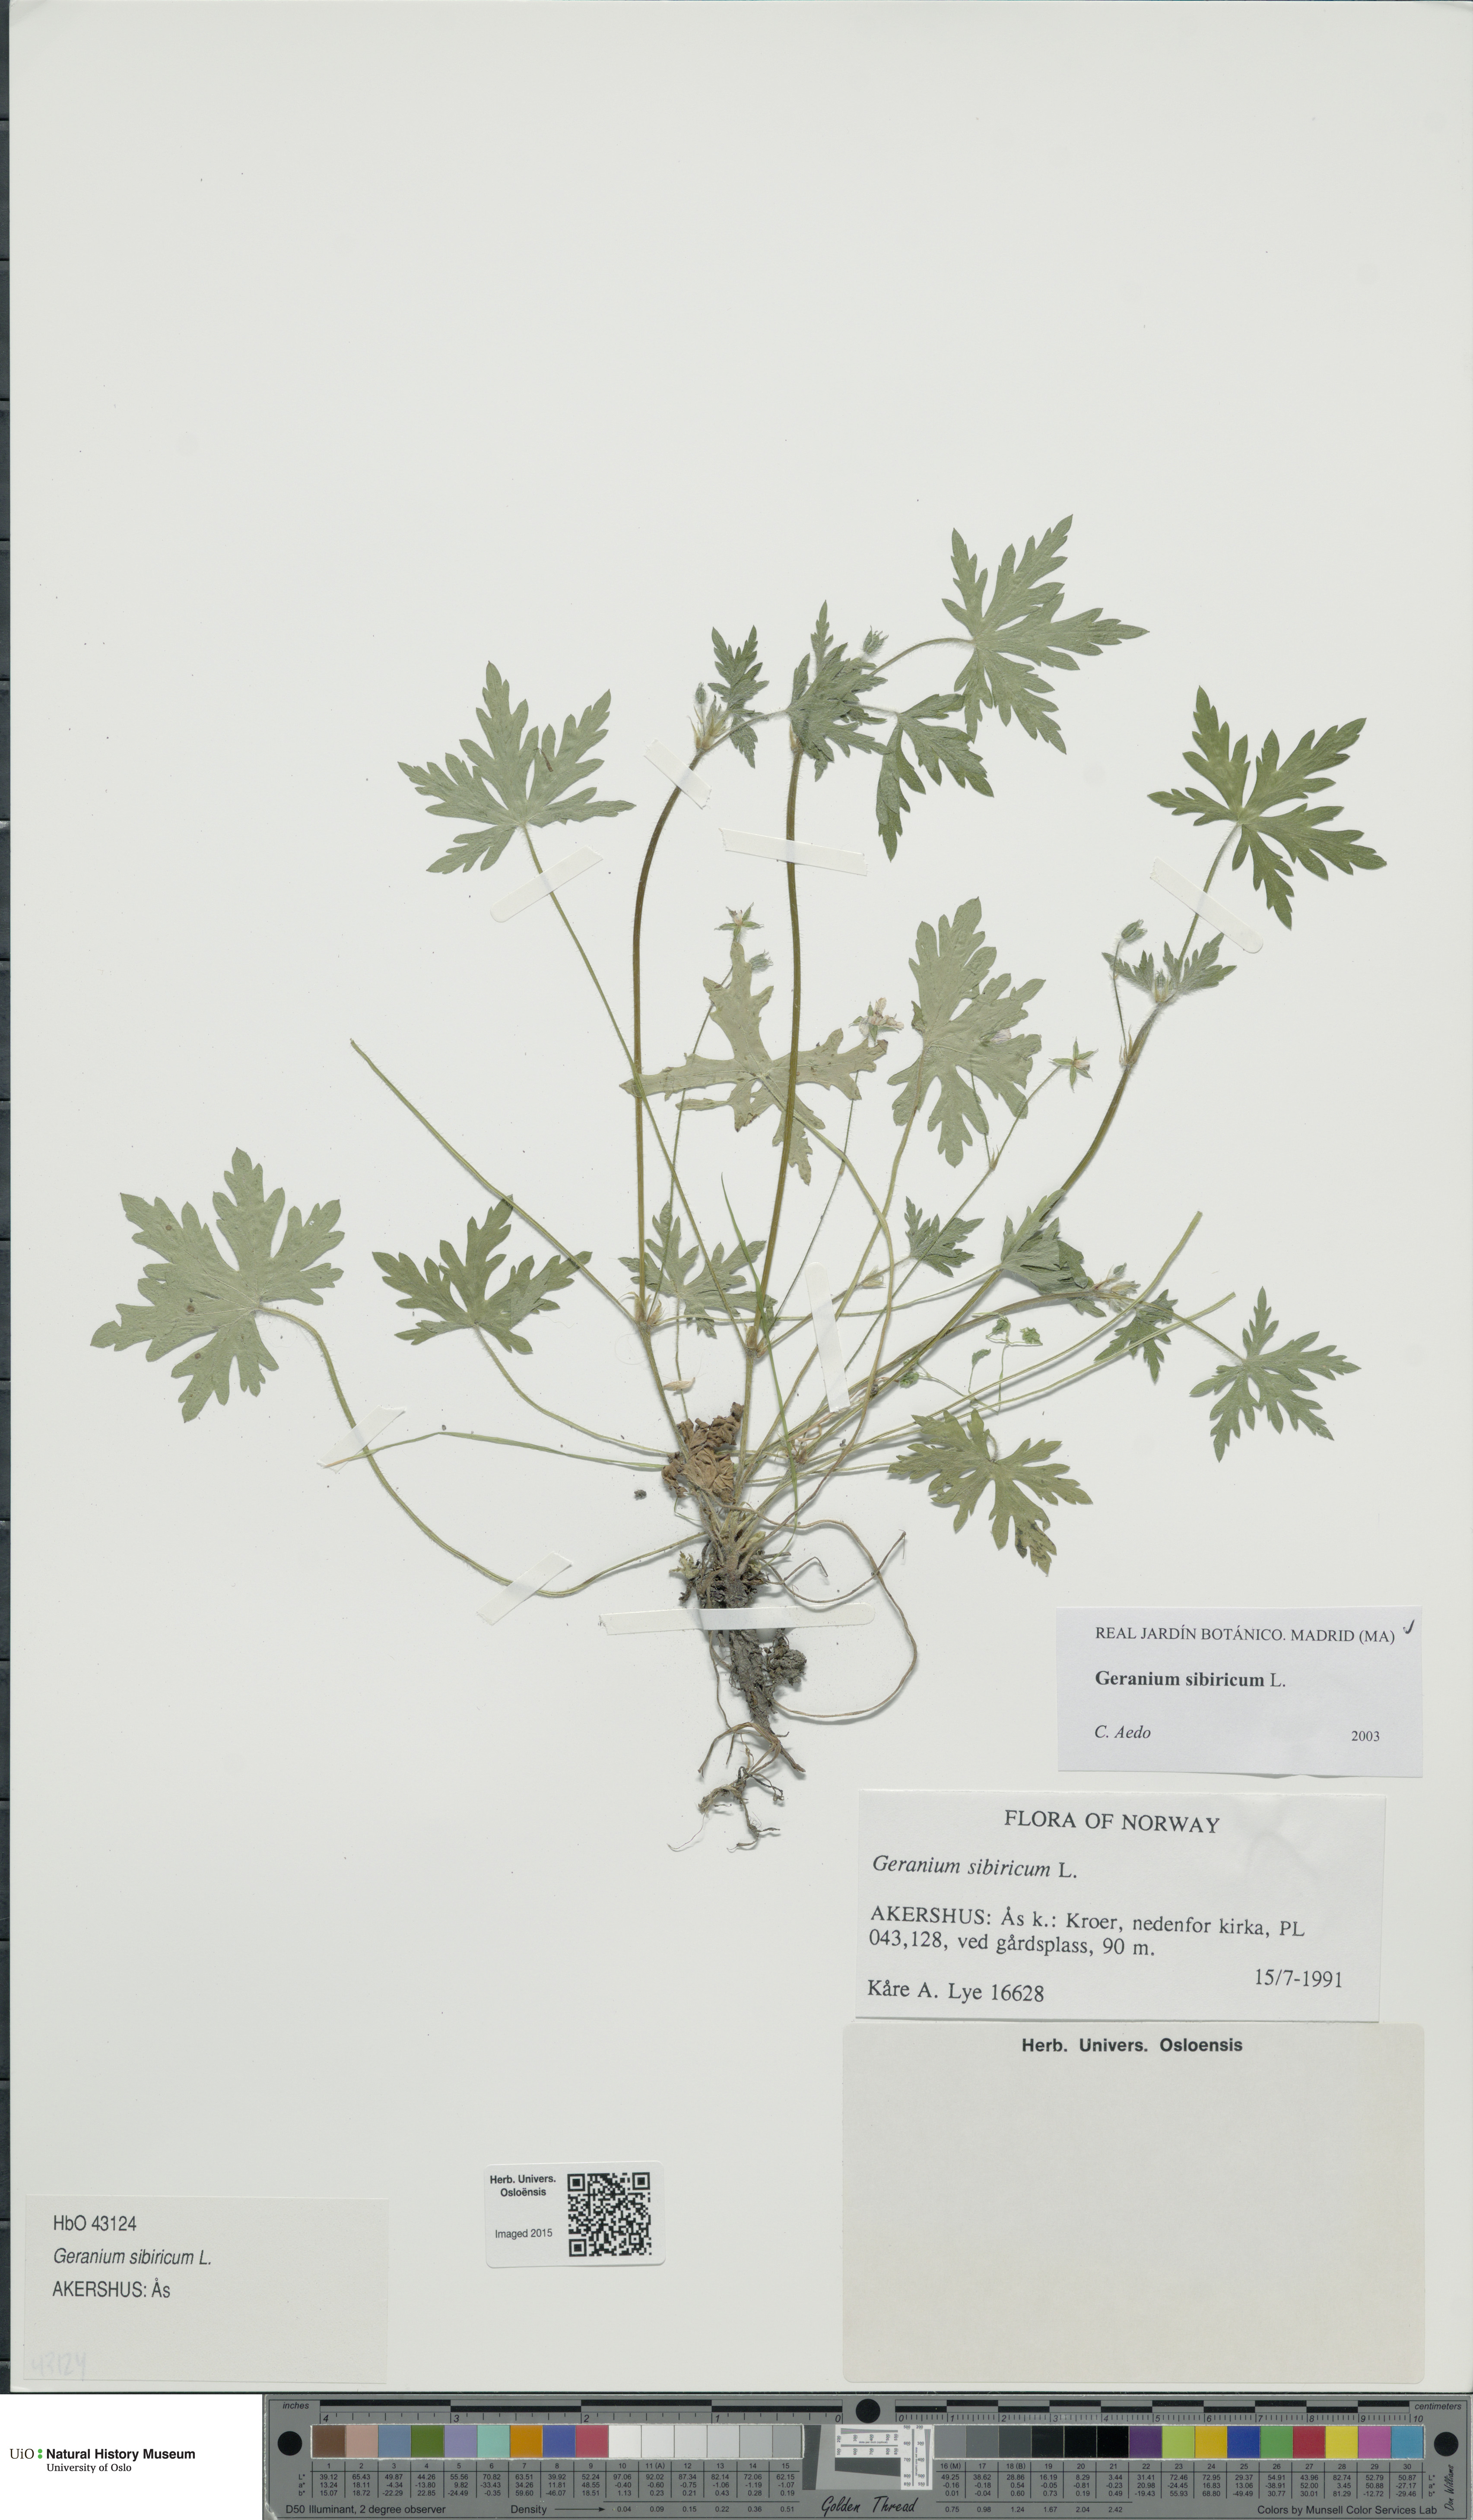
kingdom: Plantae
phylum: Tracheophyta
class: Magnoliopsida
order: Geraniales
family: Geraniaceae
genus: Geranium
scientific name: Geranium sibiricum
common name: Siberian crane's-bill
